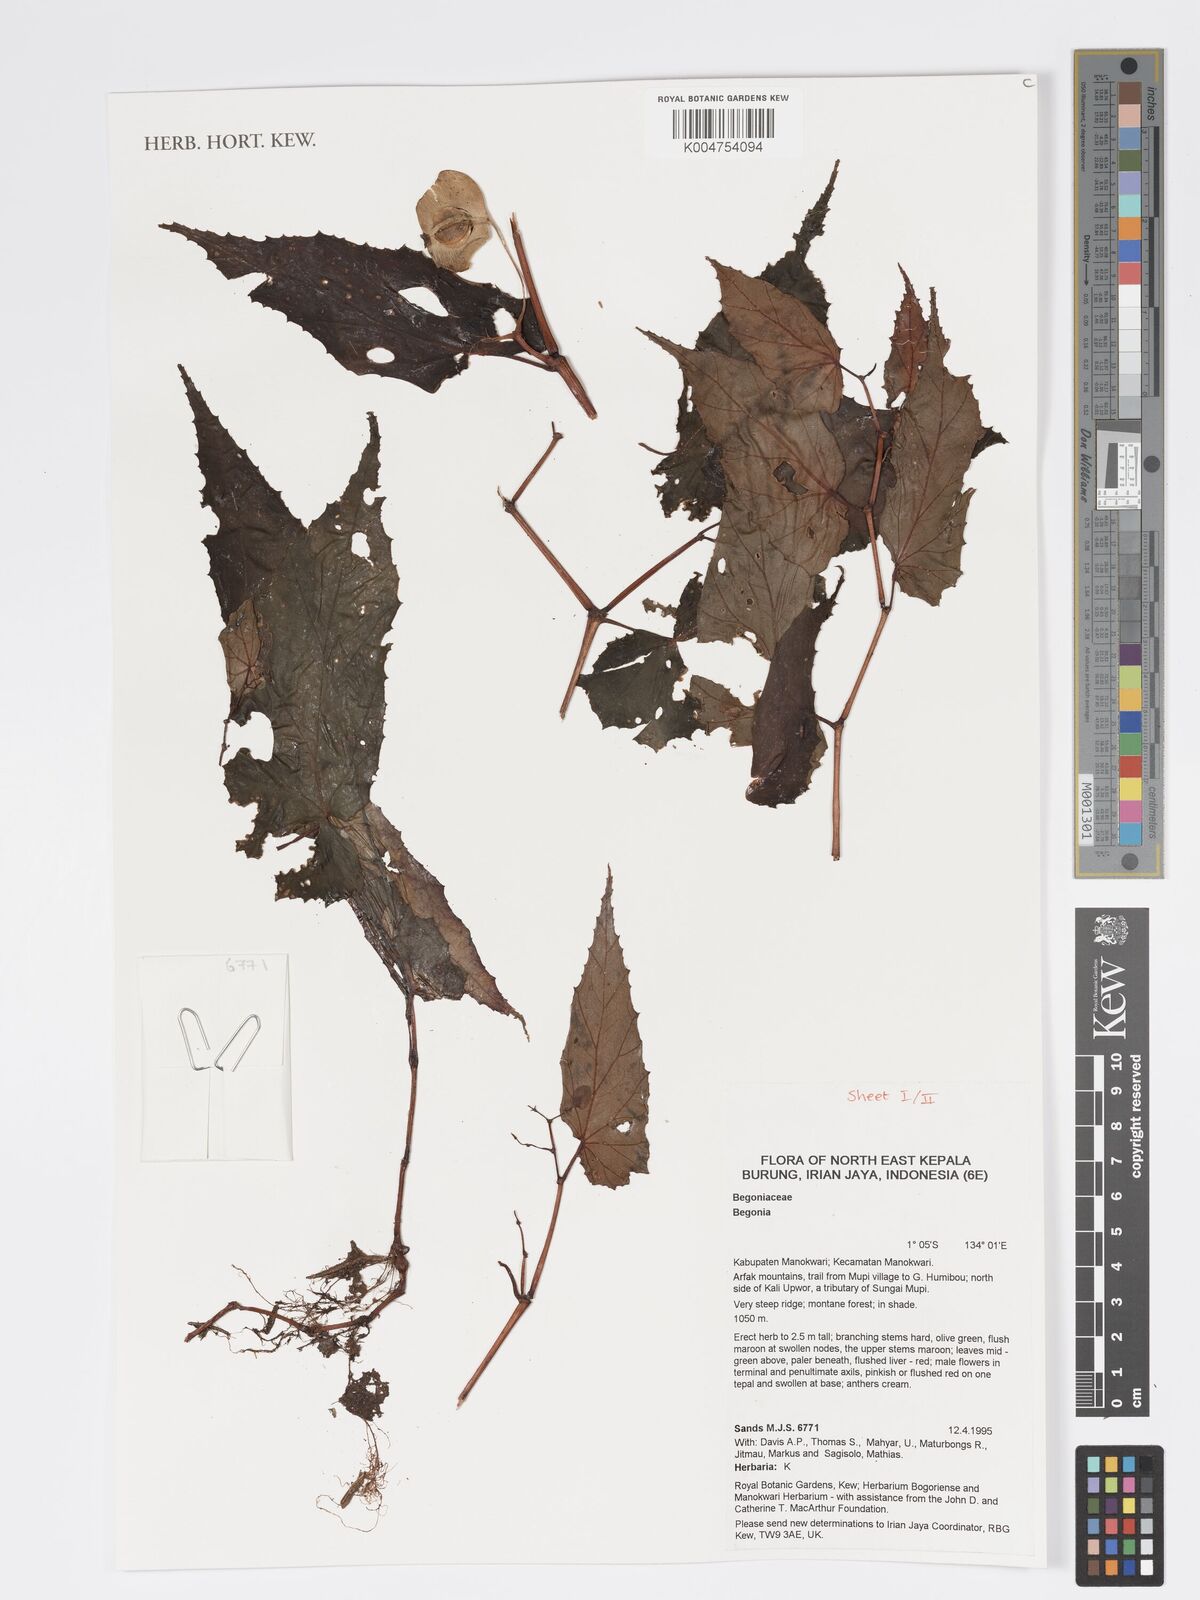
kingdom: Plantae
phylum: Tracheophyta
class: Magnoliopsida
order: Cucurbitales
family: Begoniaceae
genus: Begonia
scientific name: Begonia
